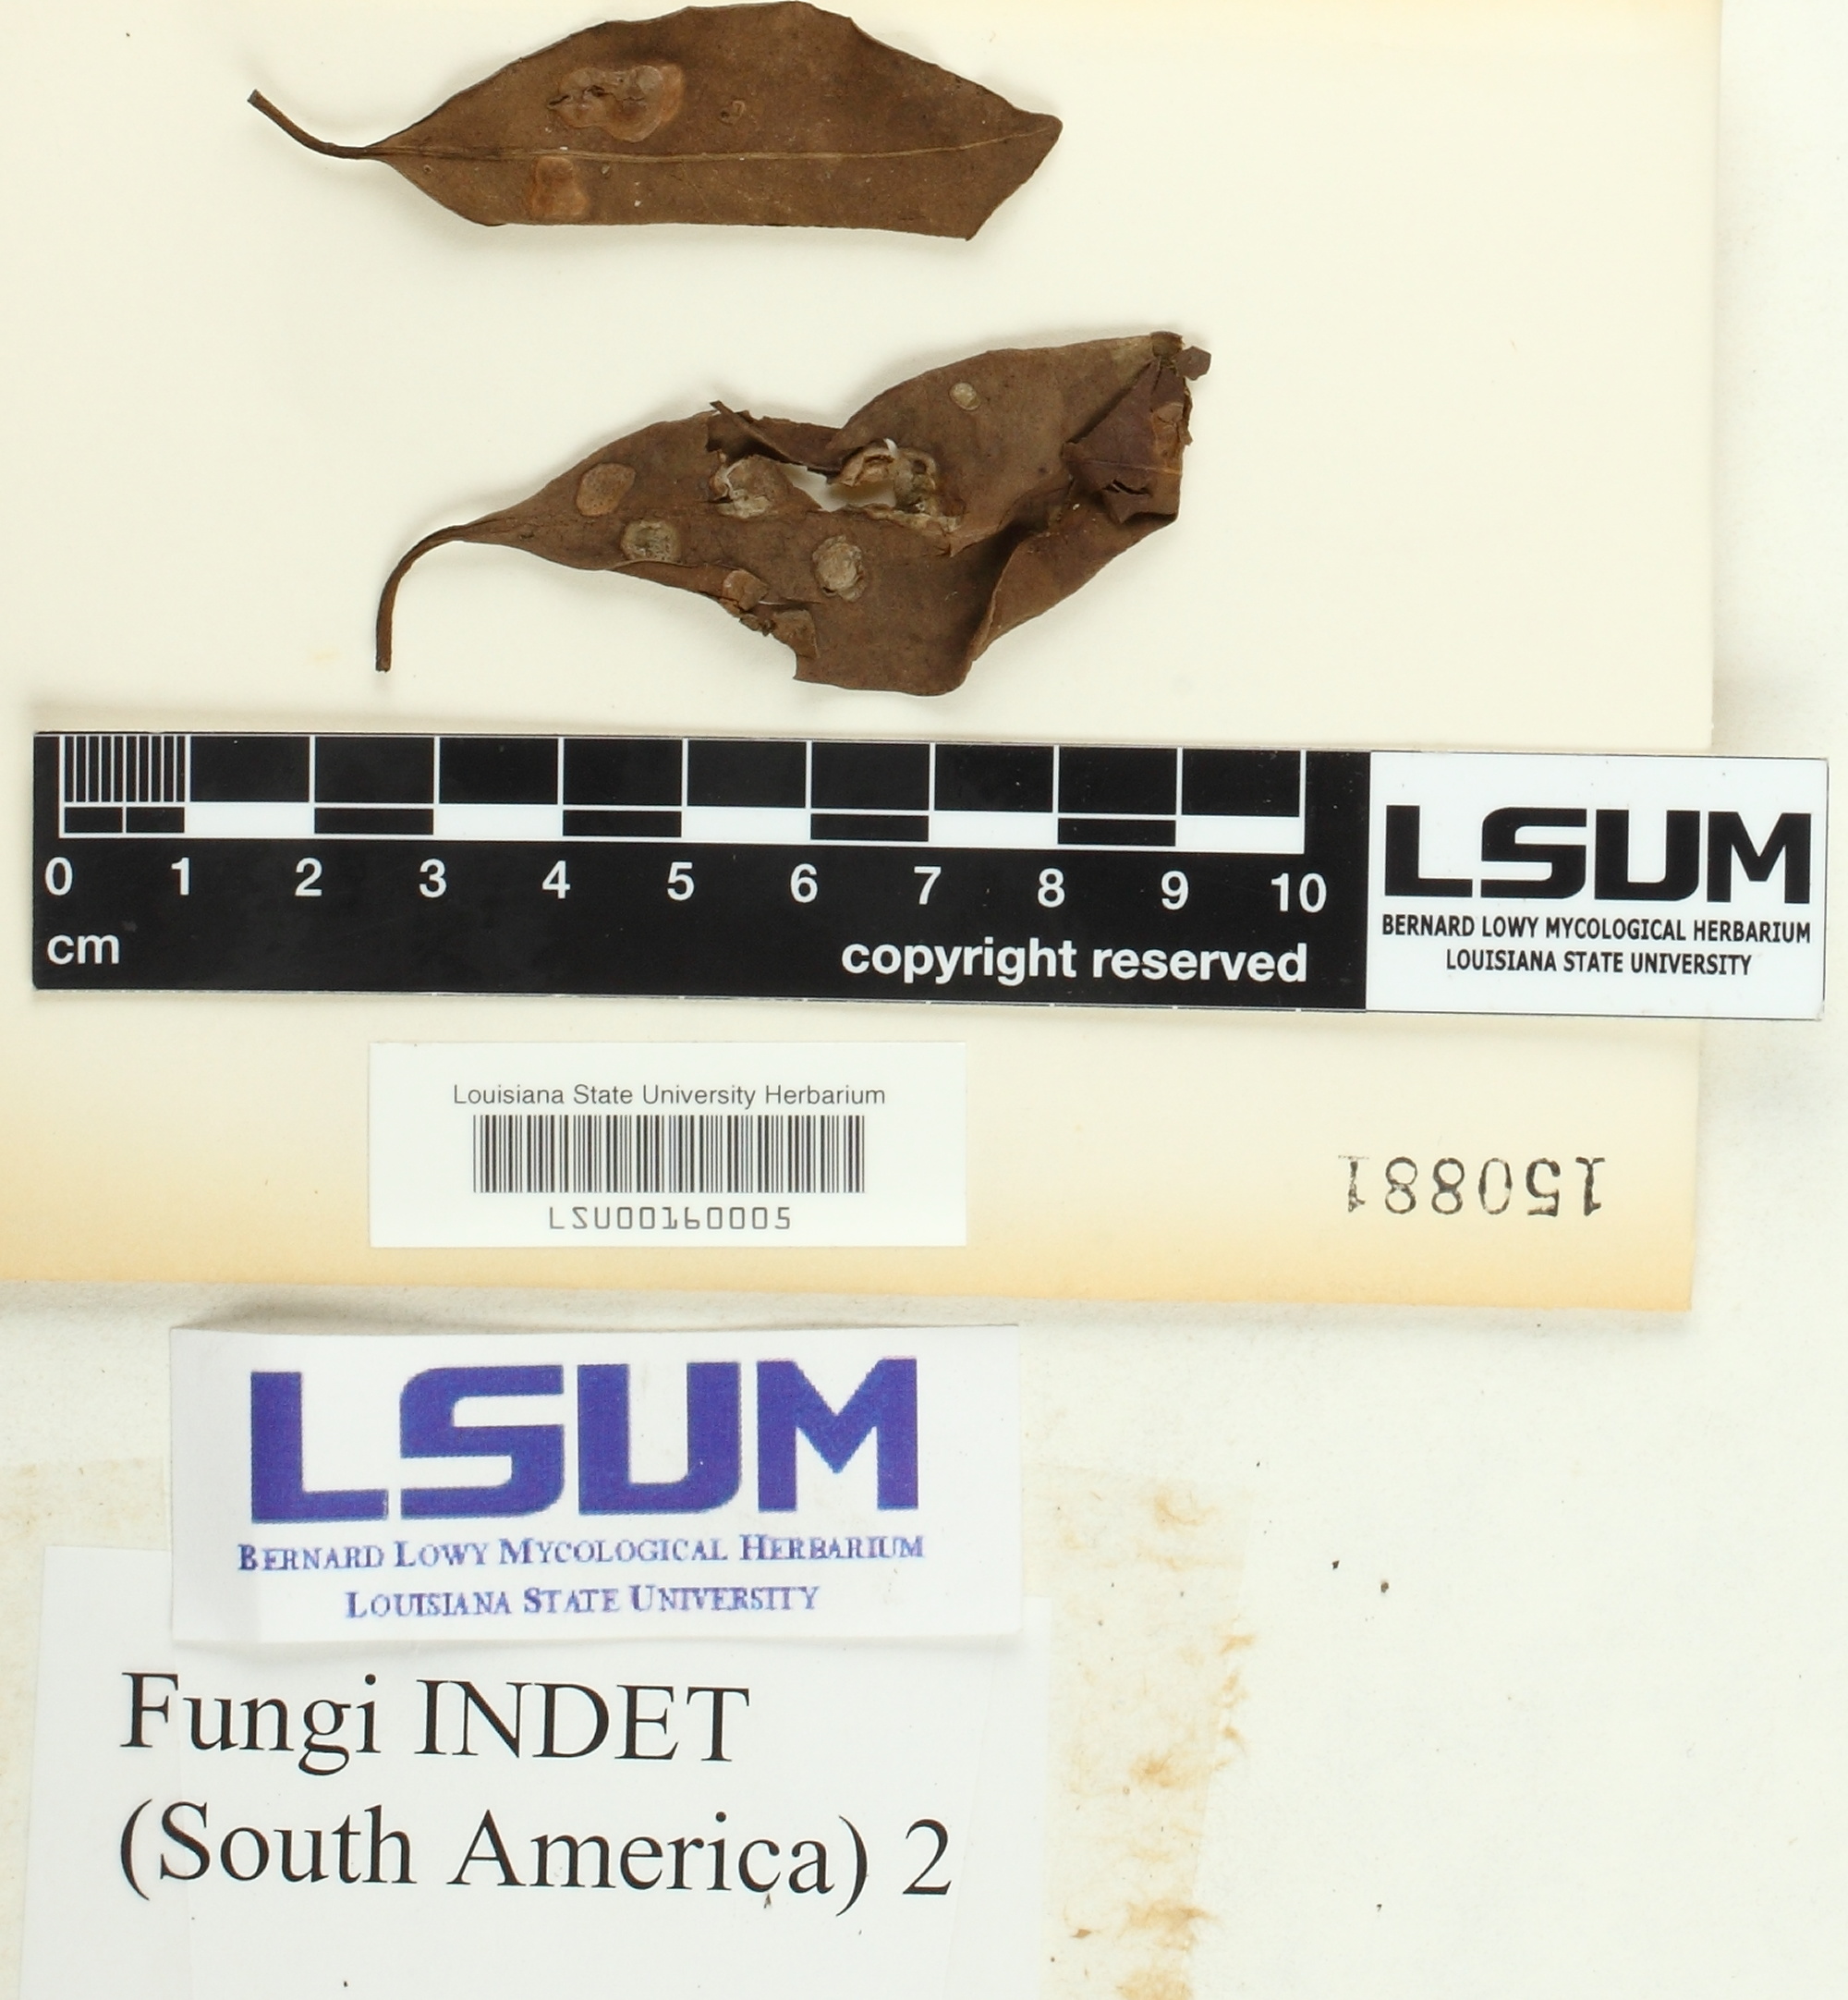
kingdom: Fungi
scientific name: Fungi
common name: Fungi
